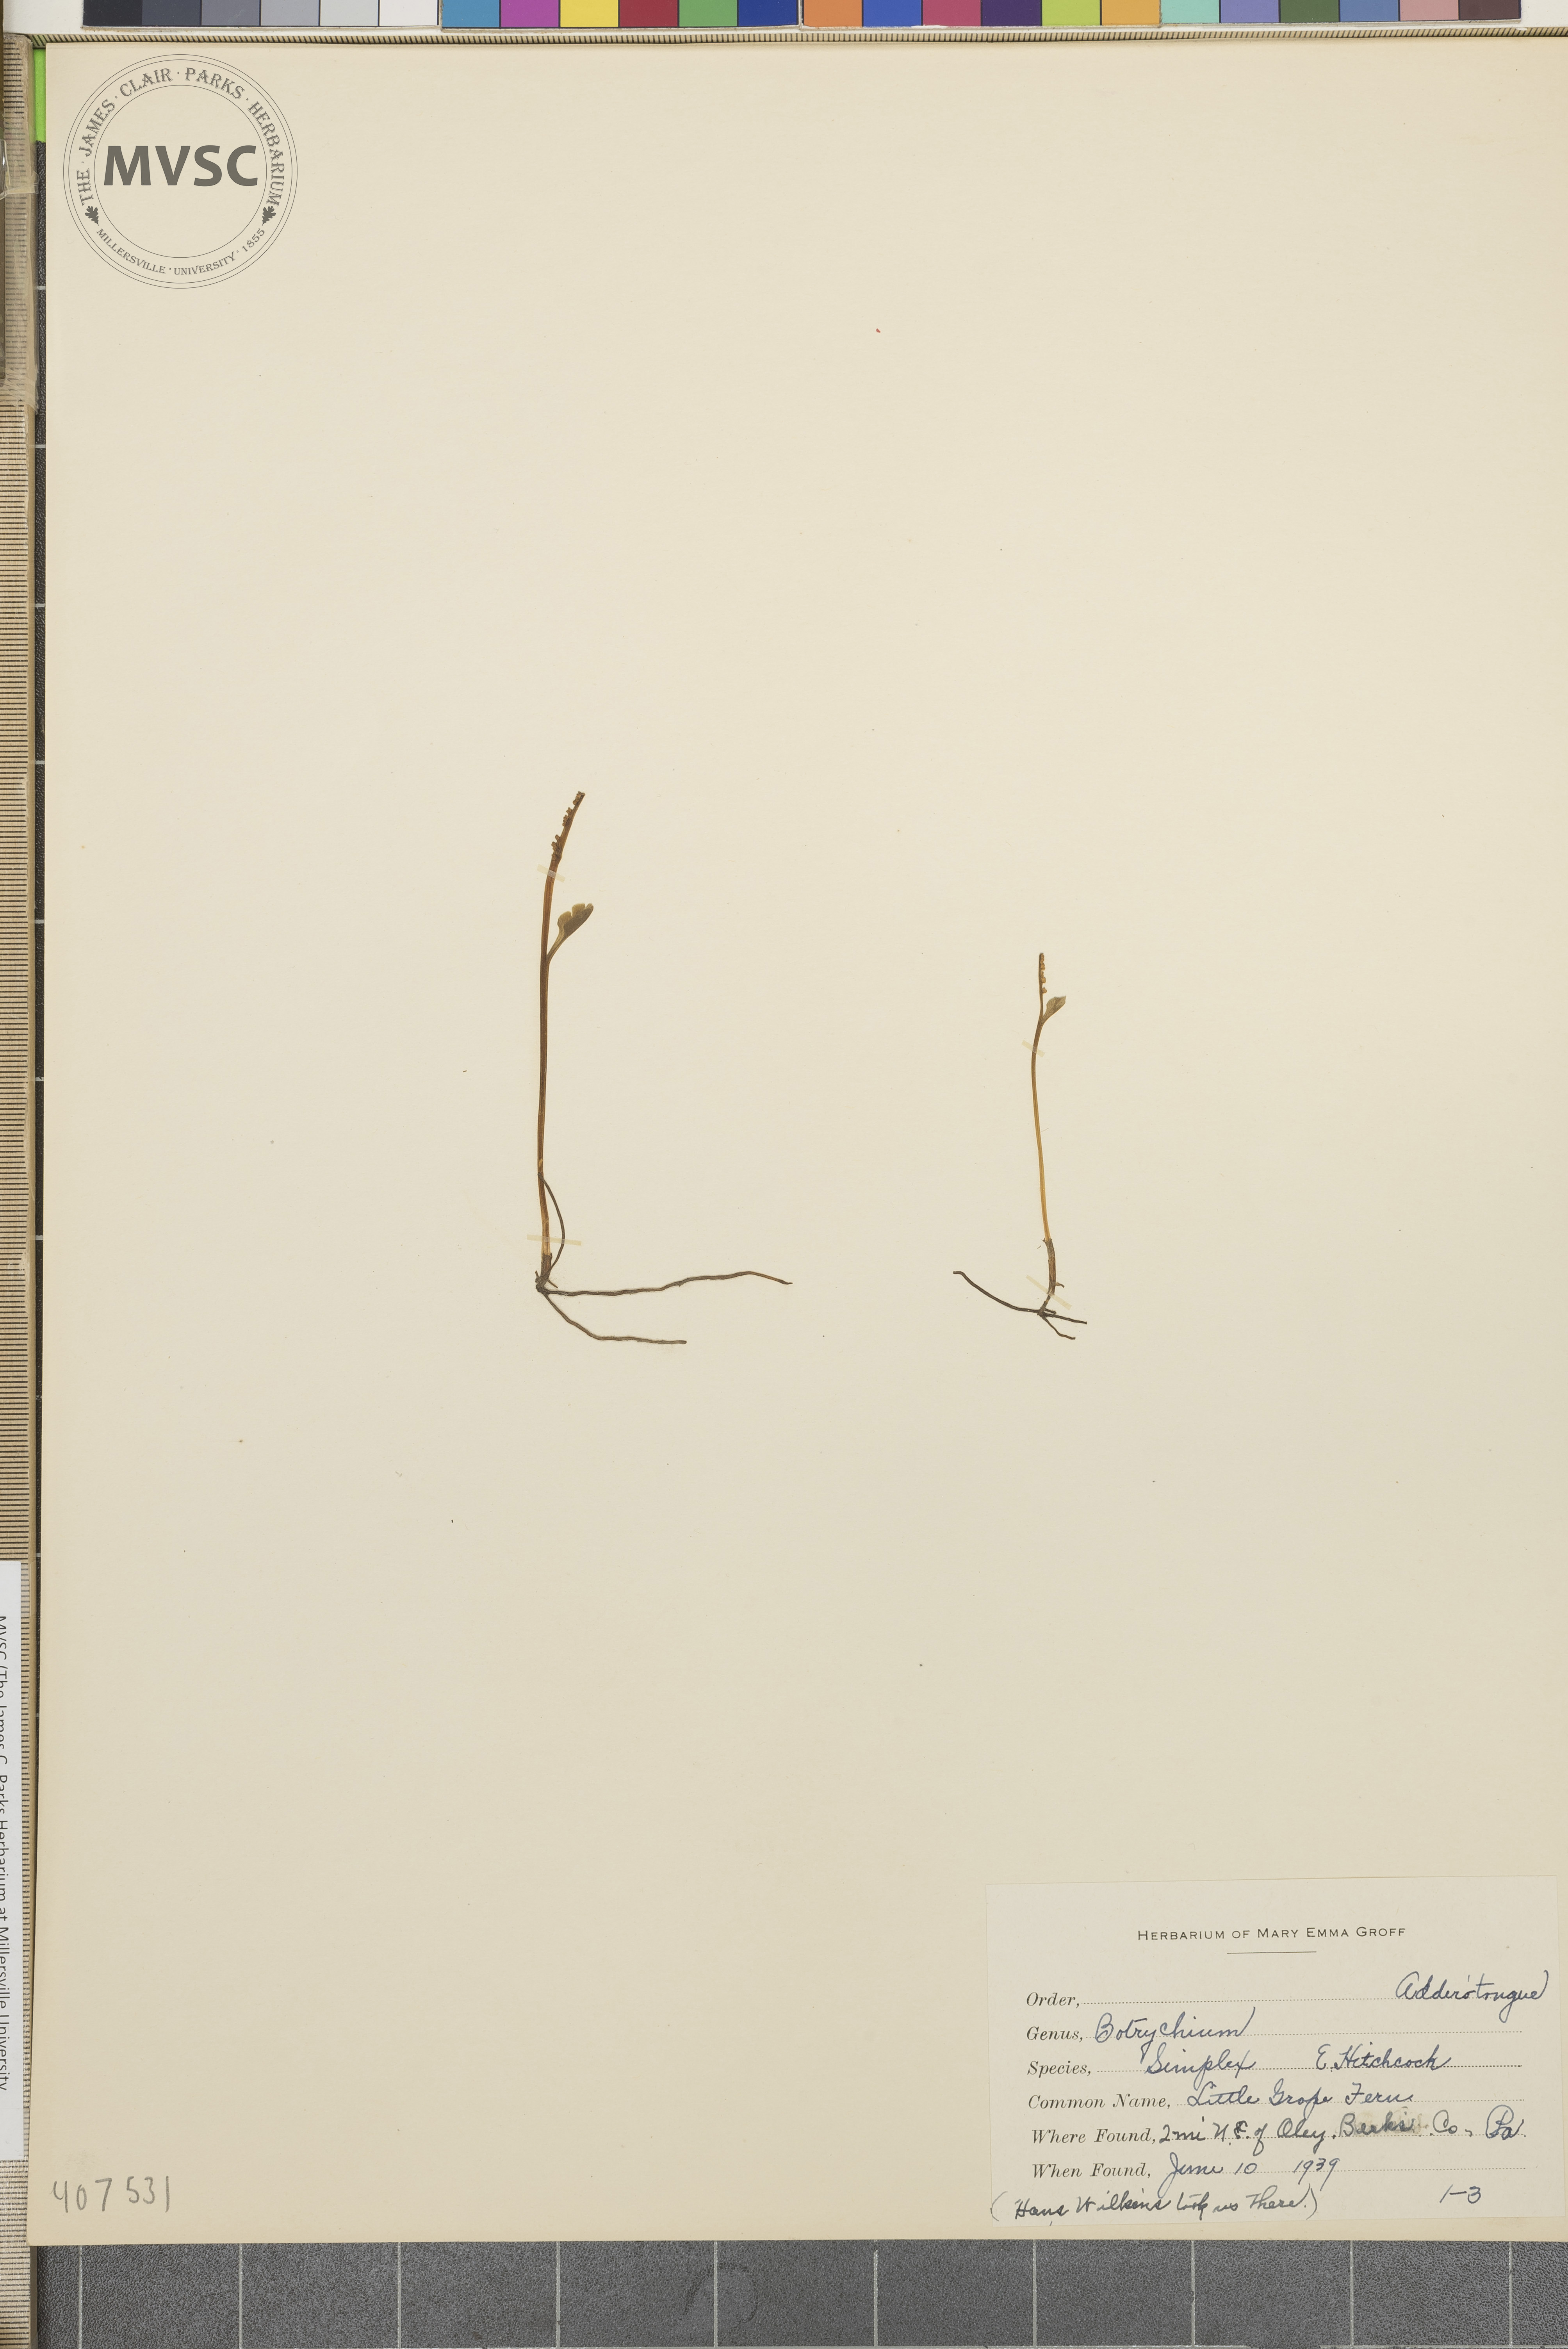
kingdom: Plantae
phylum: Tracheophyta
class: Polypodiopsida
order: Ophioglossales
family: Ophioglossaceae
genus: Botrychium
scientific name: Botrychium simplex
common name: Least moonwort
